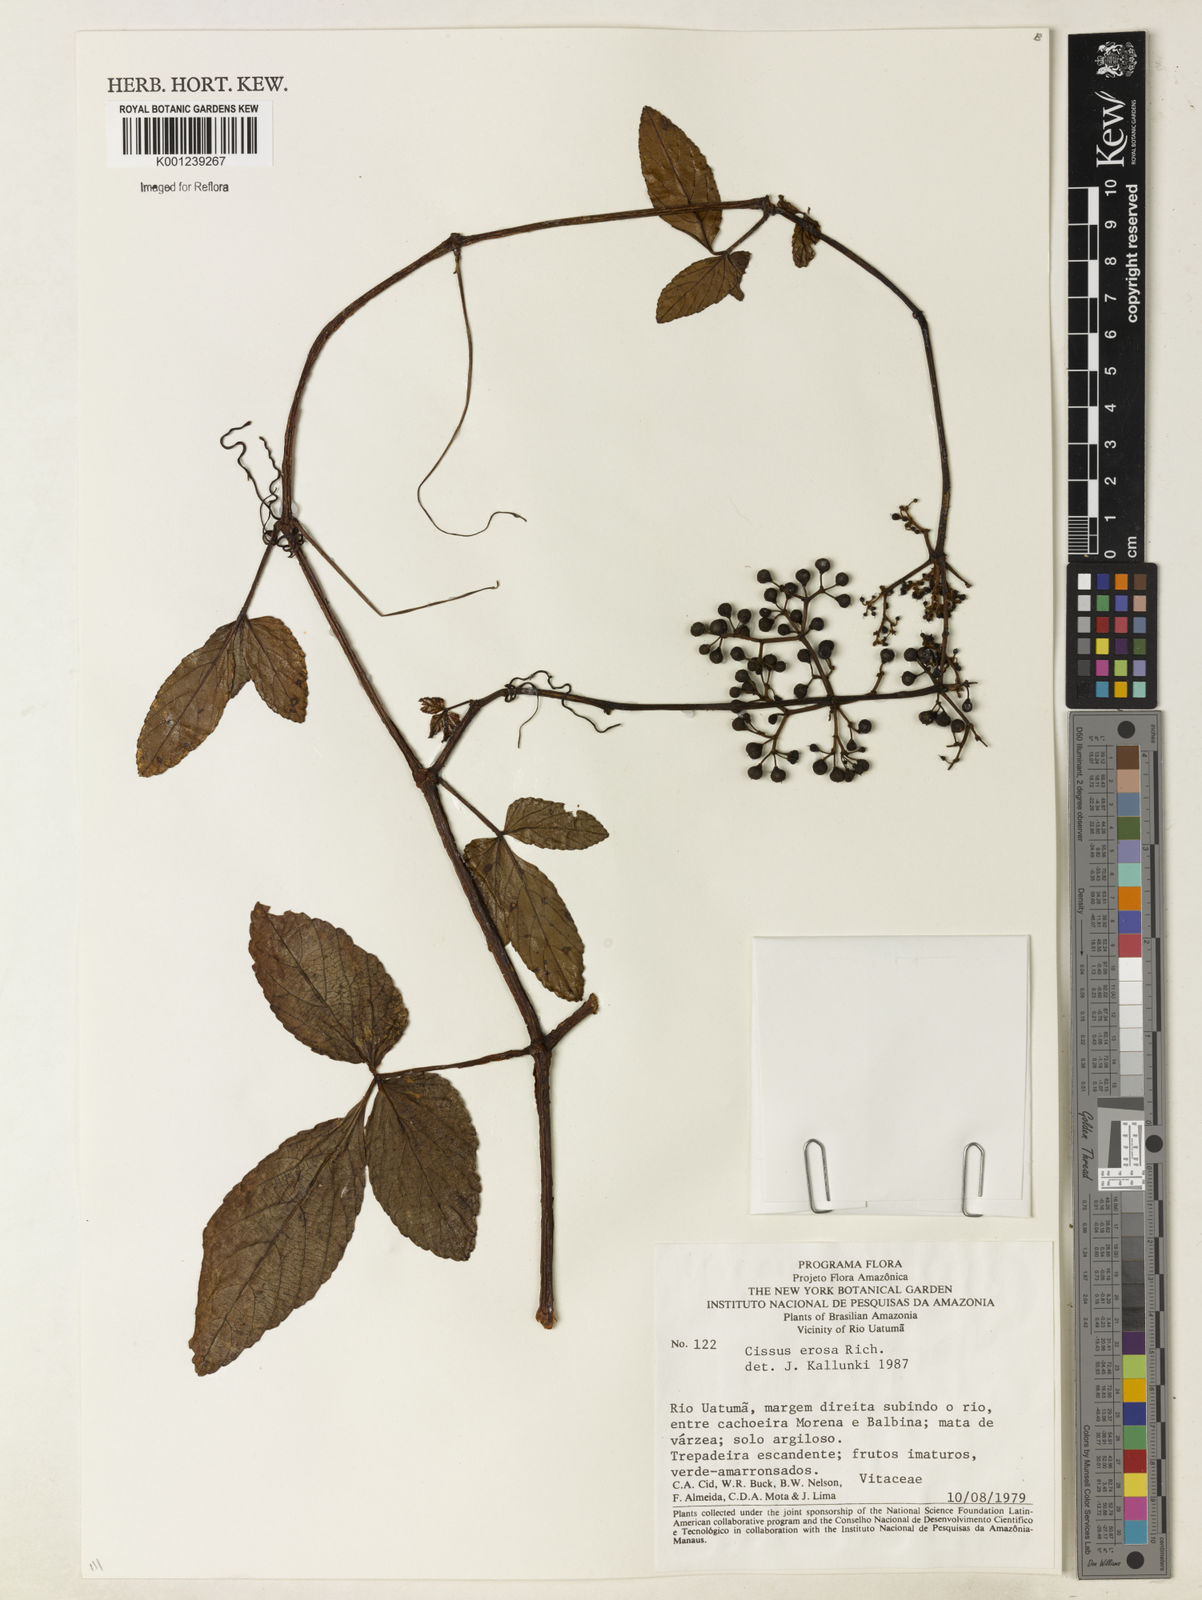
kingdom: Plantae
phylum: Tracheophyta
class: Magnoliopsida
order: Vitales
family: Vitaceae
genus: Cissus
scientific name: Cissus erosa
